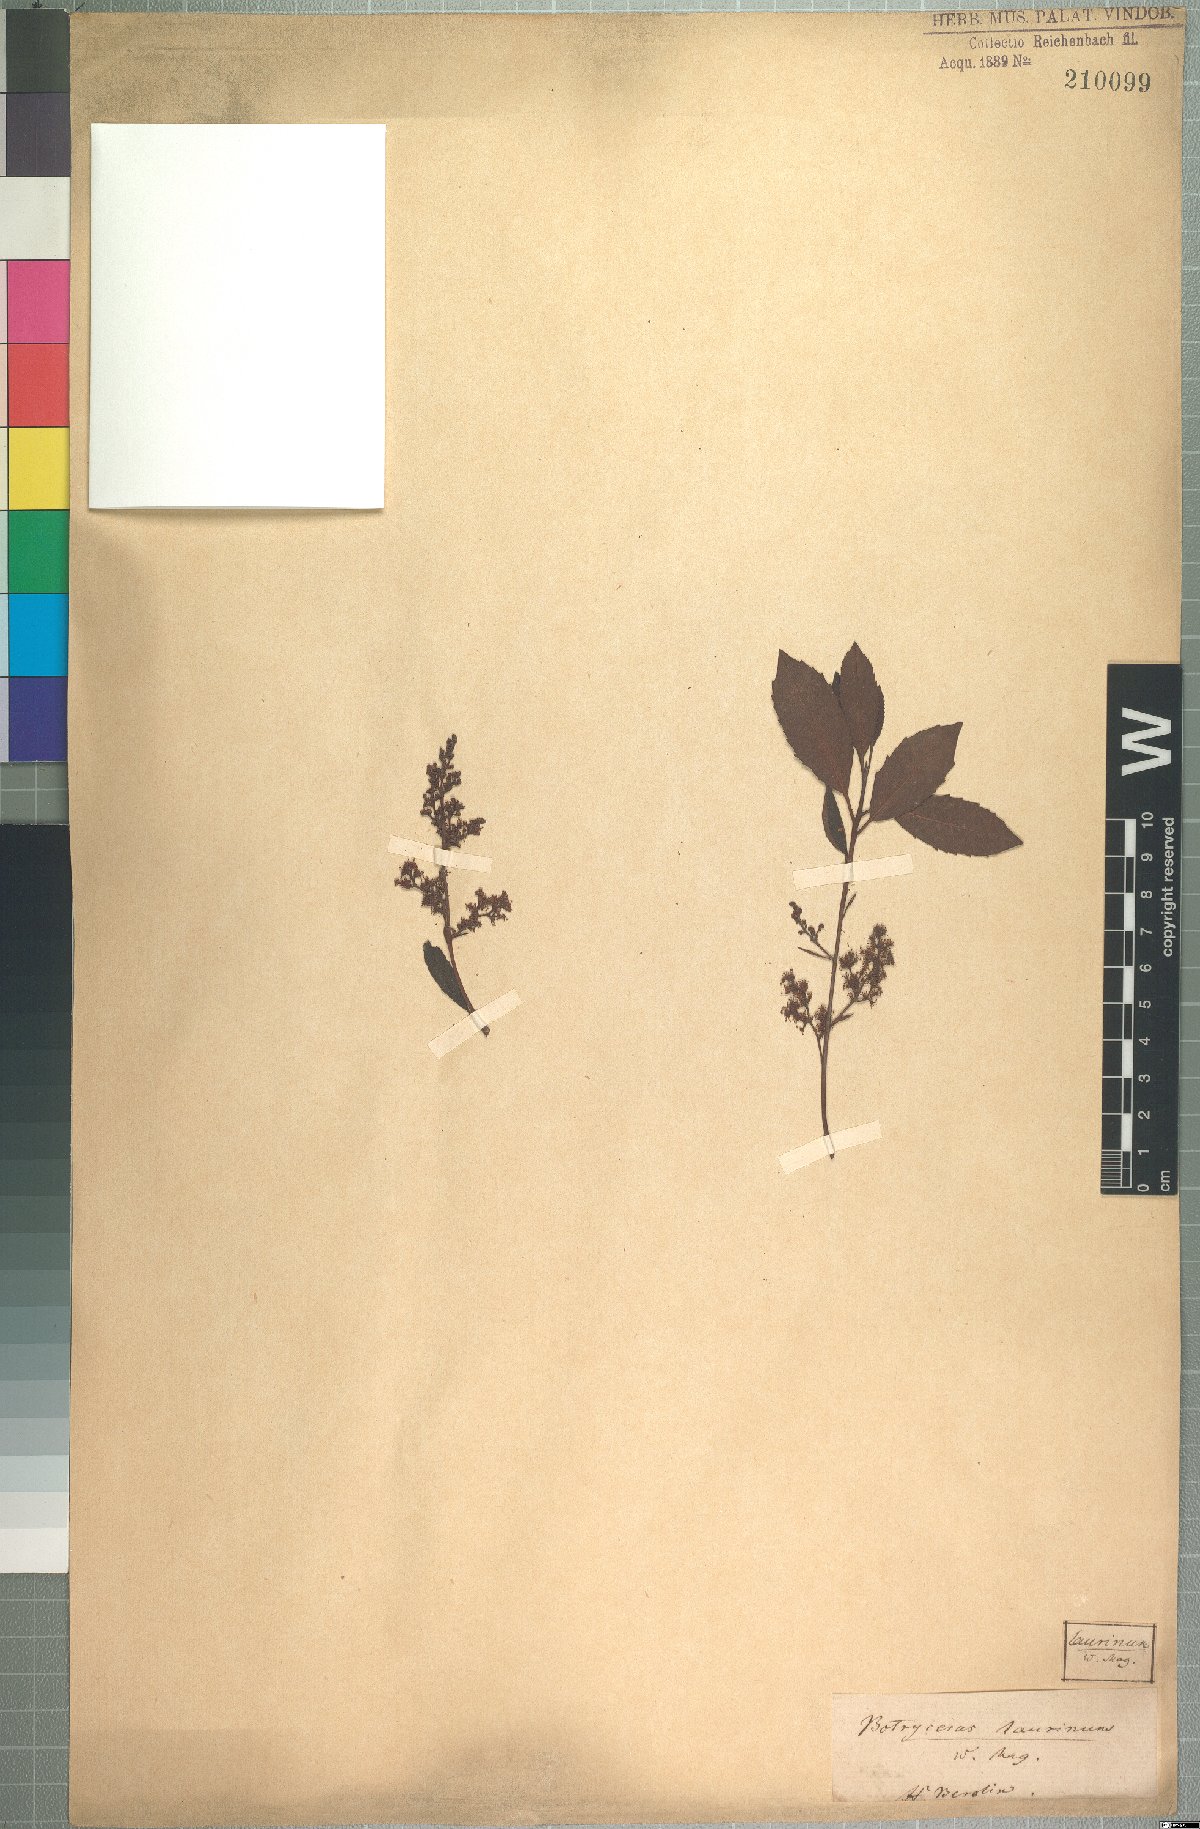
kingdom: Plantae
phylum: Tracheophyta
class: Magnoliopsida
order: Sapindales
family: Anacardiaceae
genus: Laurophyllus
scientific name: Laurophyllus capensis
